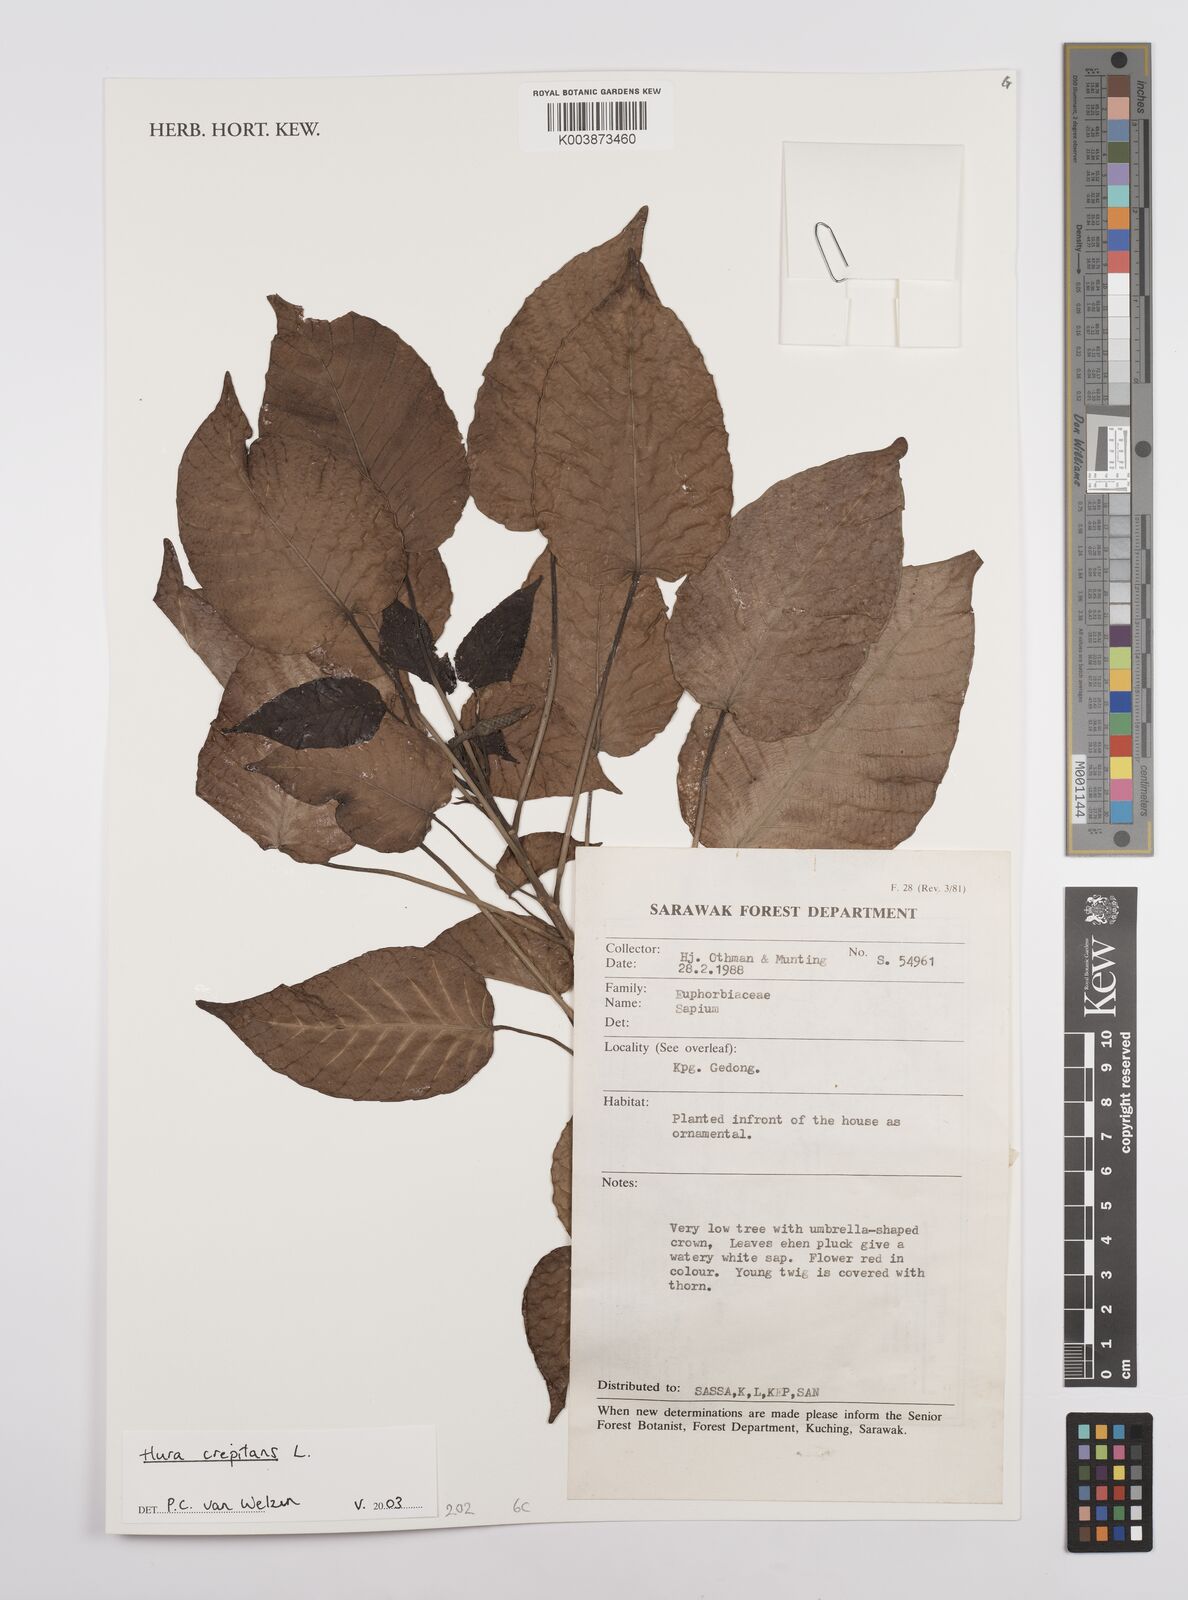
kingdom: Plantae
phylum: Tracheophyta
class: Magnoliopsida
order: Malpighiales
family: Euphorbiaceae
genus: Hura
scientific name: Hura crepitans
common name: Sandboxtree
